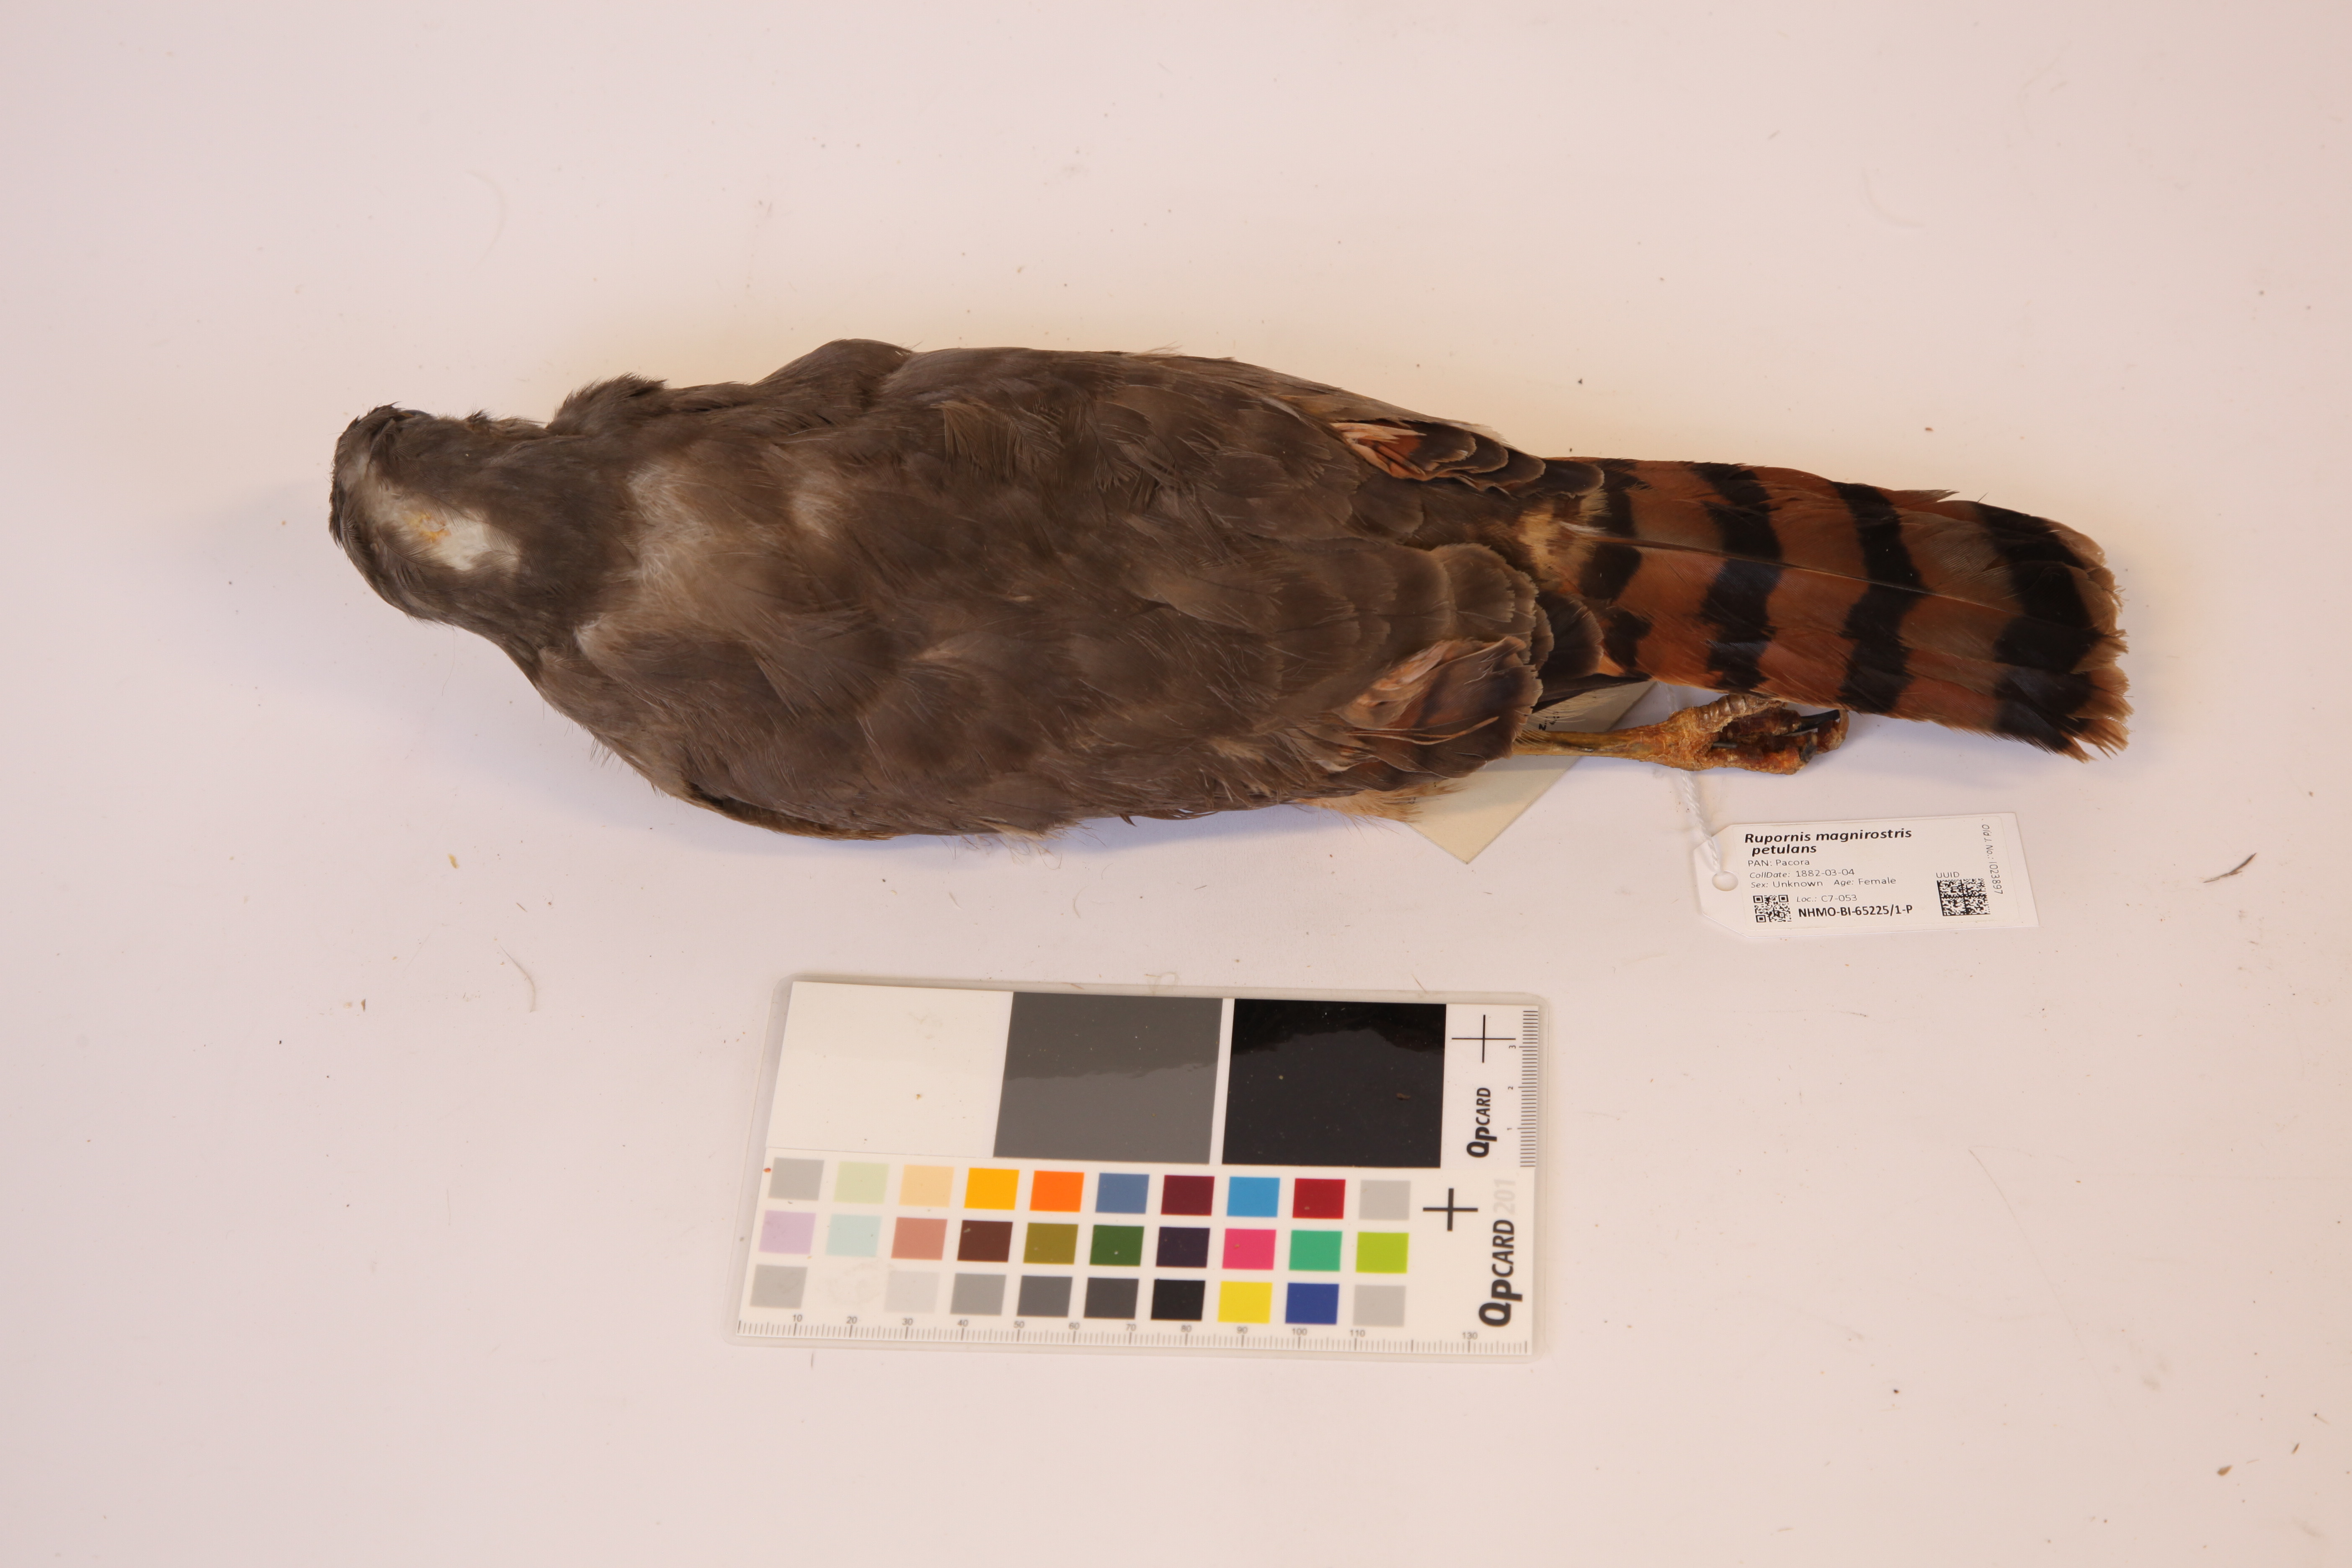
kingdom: Animalia
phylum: Chordata
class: Aves
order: Accipitriformes
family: Accipitridae
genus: Rupornis
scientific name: Rupornis magnirostris
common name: Roadside hawk
